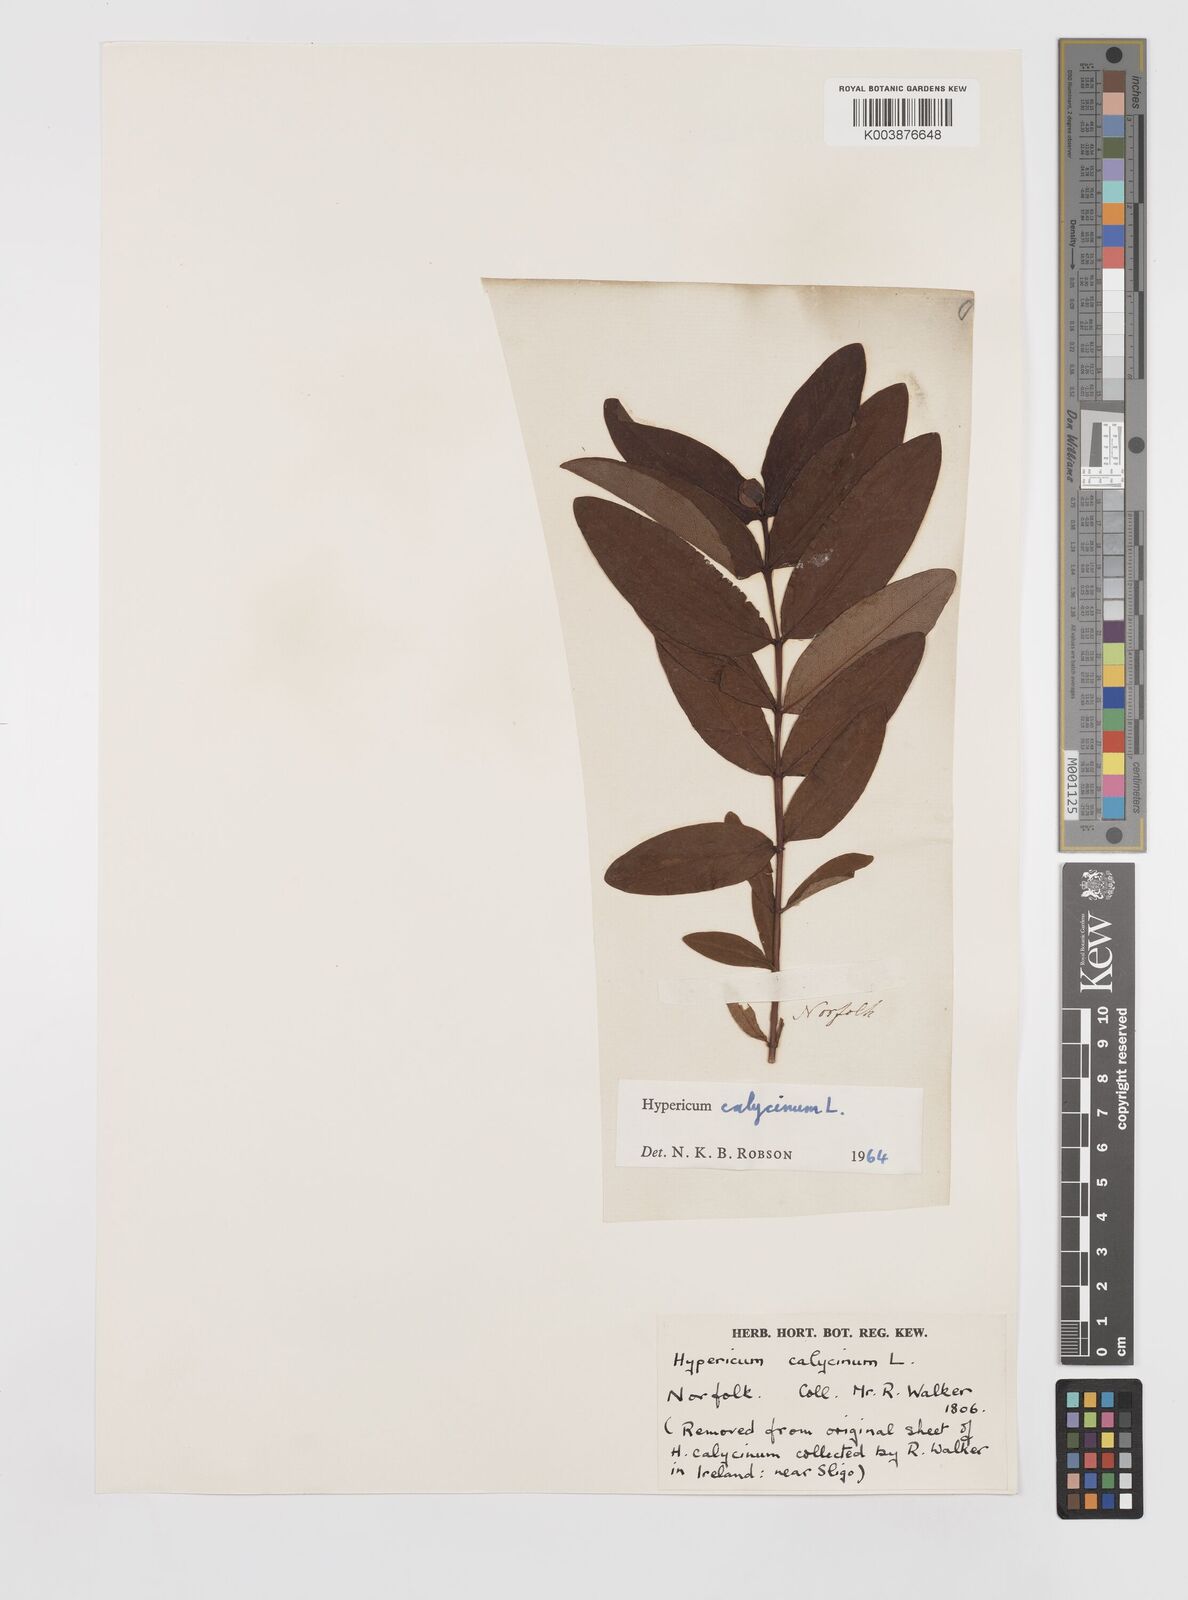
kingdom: Plantae
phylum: Tracheophyta
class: Magnoliopsida
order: Malpighiales
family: Hypericaceae
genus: Hypericum
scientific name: Hypericum calycinum
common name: Rose-of-sharon
